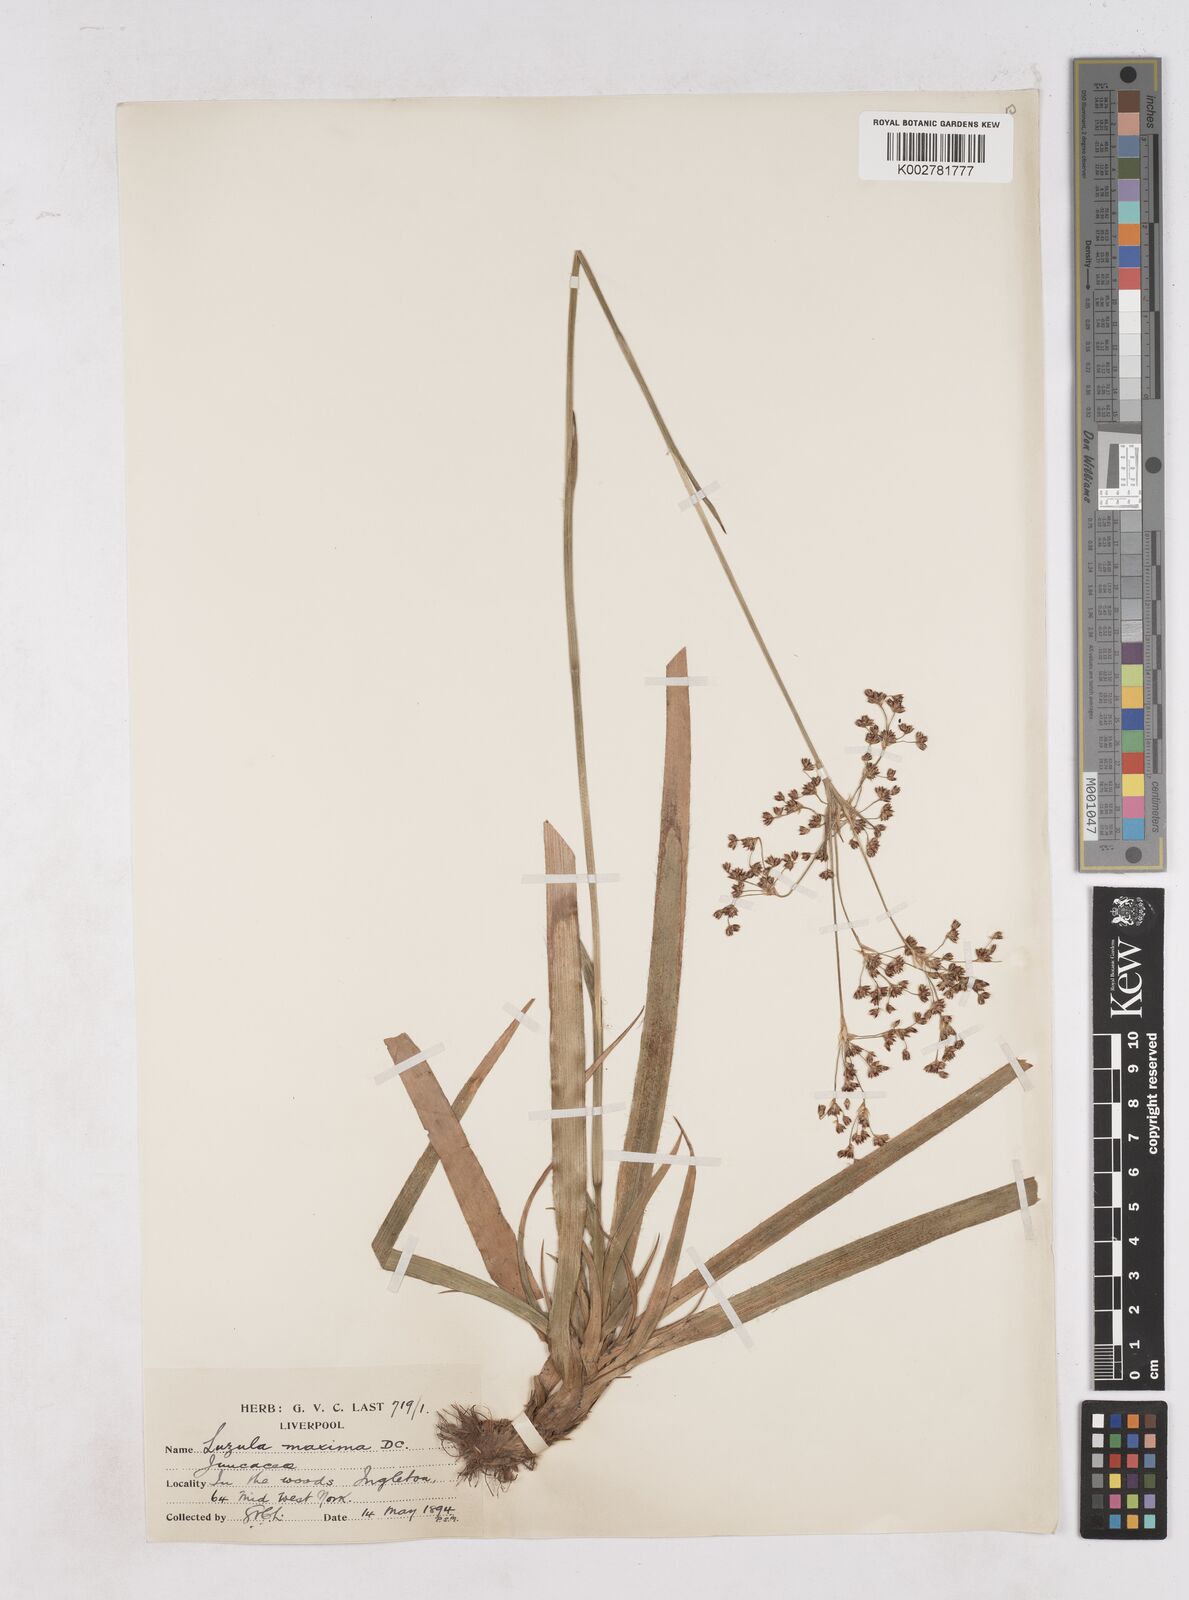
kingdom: Plantae
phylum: Tracheophyta
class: Liliopsida
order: Poales
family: Juncaceae
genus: Luzula
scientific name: Luzula sylvatica
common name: Great wood-rush
